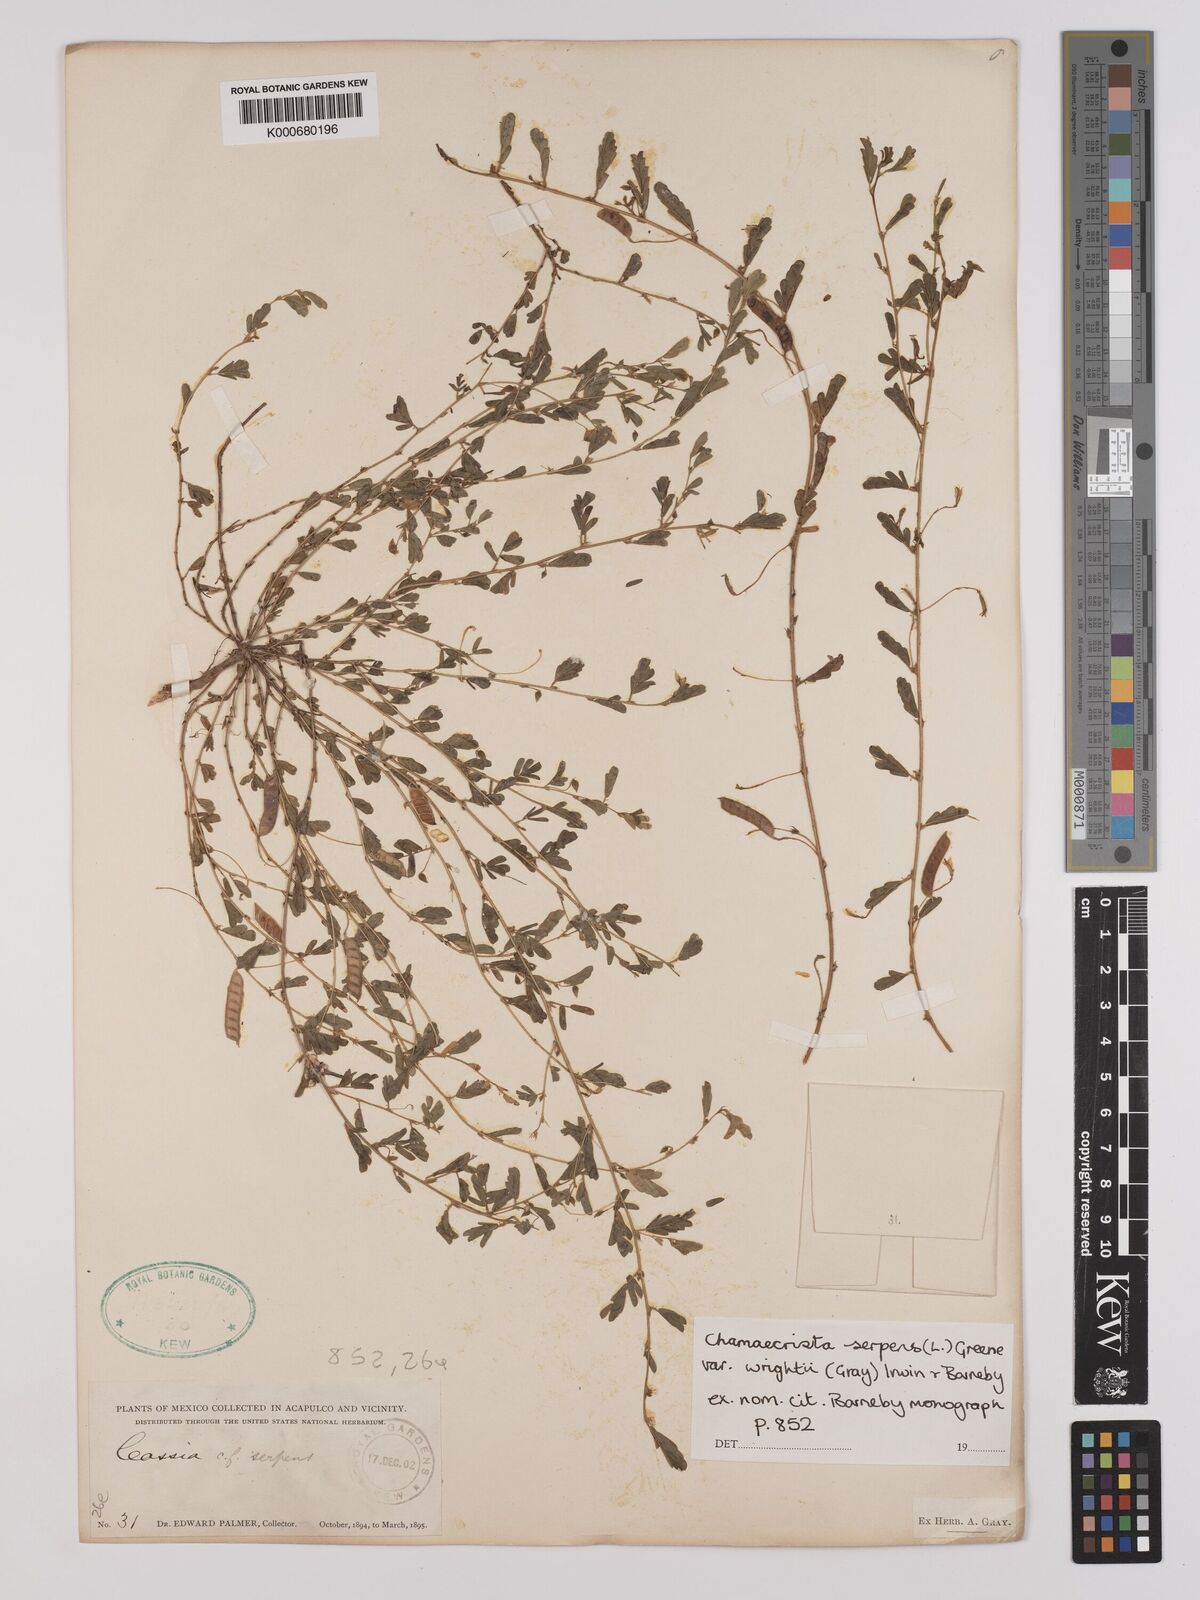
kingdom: Plantae
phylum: Tracheophyta
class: Magnoliopsida
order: Fabales
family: Fabaceae
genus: Chamaecrista
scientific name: Chamaecrista serpens
